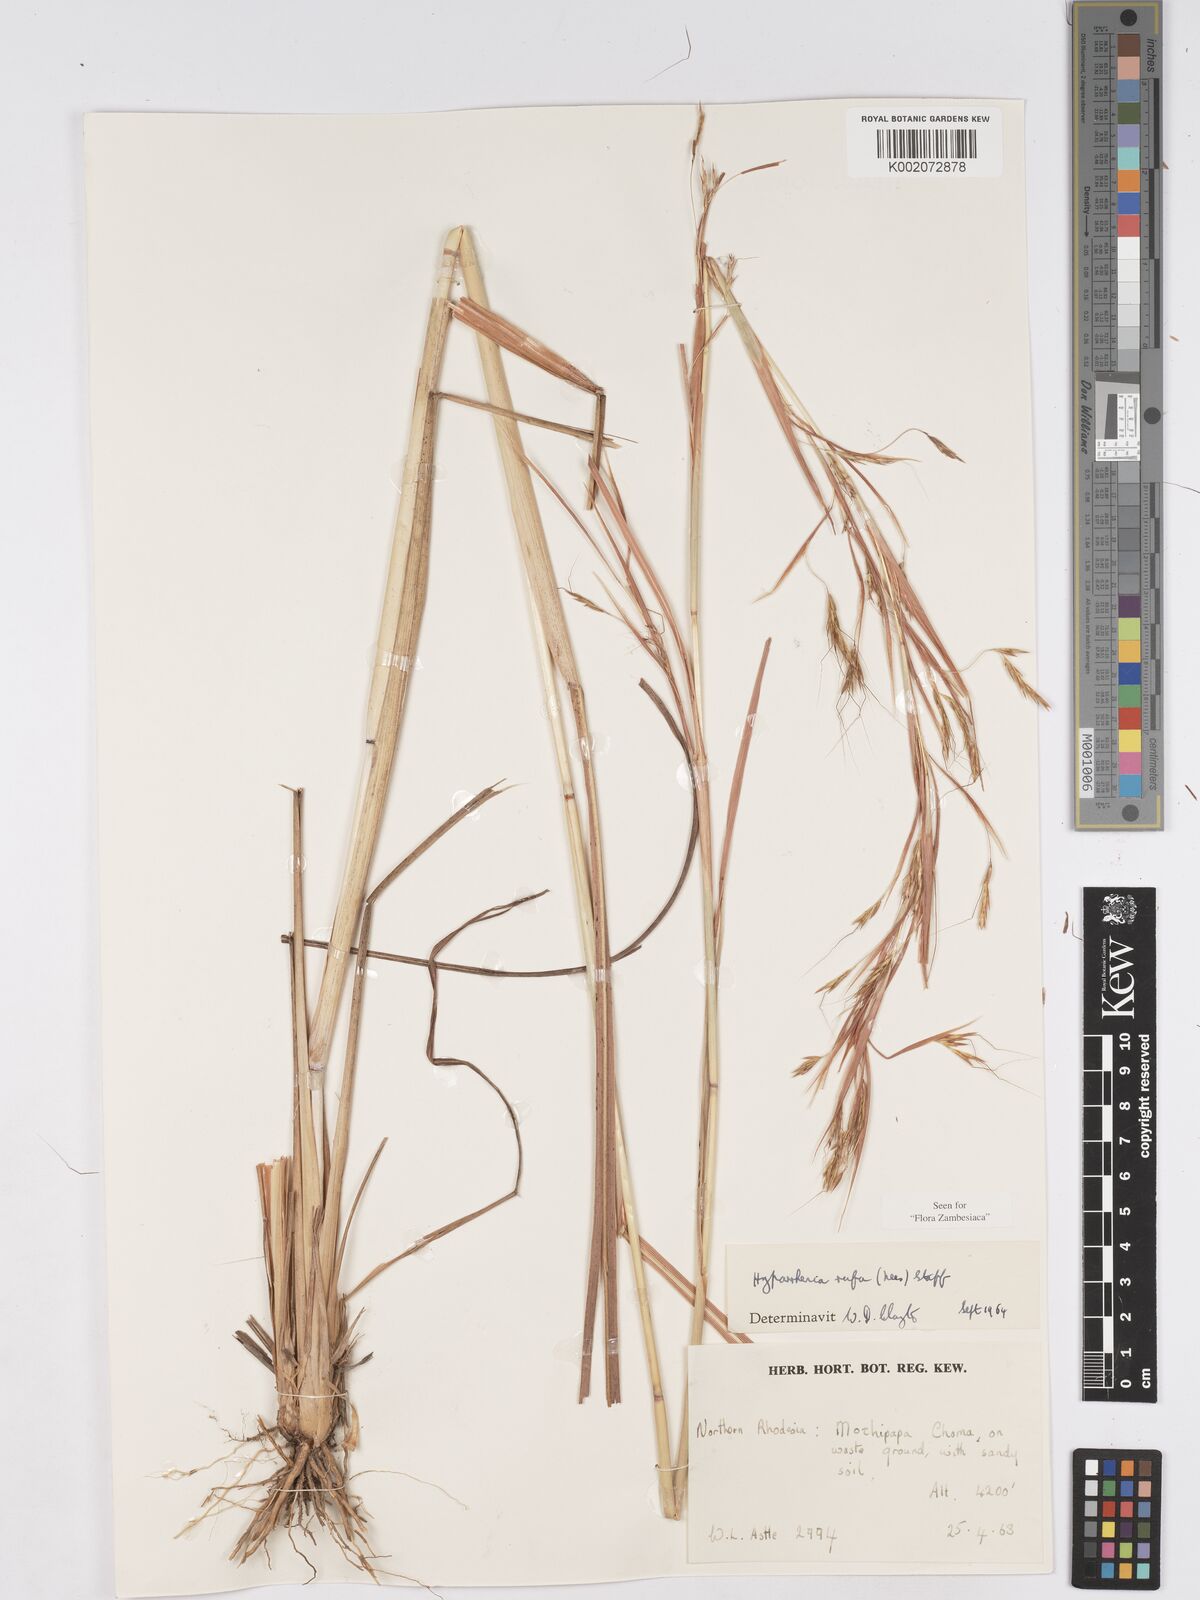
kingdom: Plantae
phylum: Tracheophyta
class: Liliopsida
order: Poales
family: Poaceae
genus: Hyparrhenia
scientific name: Hyparrhenia rufa
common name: Jaraguagrass
